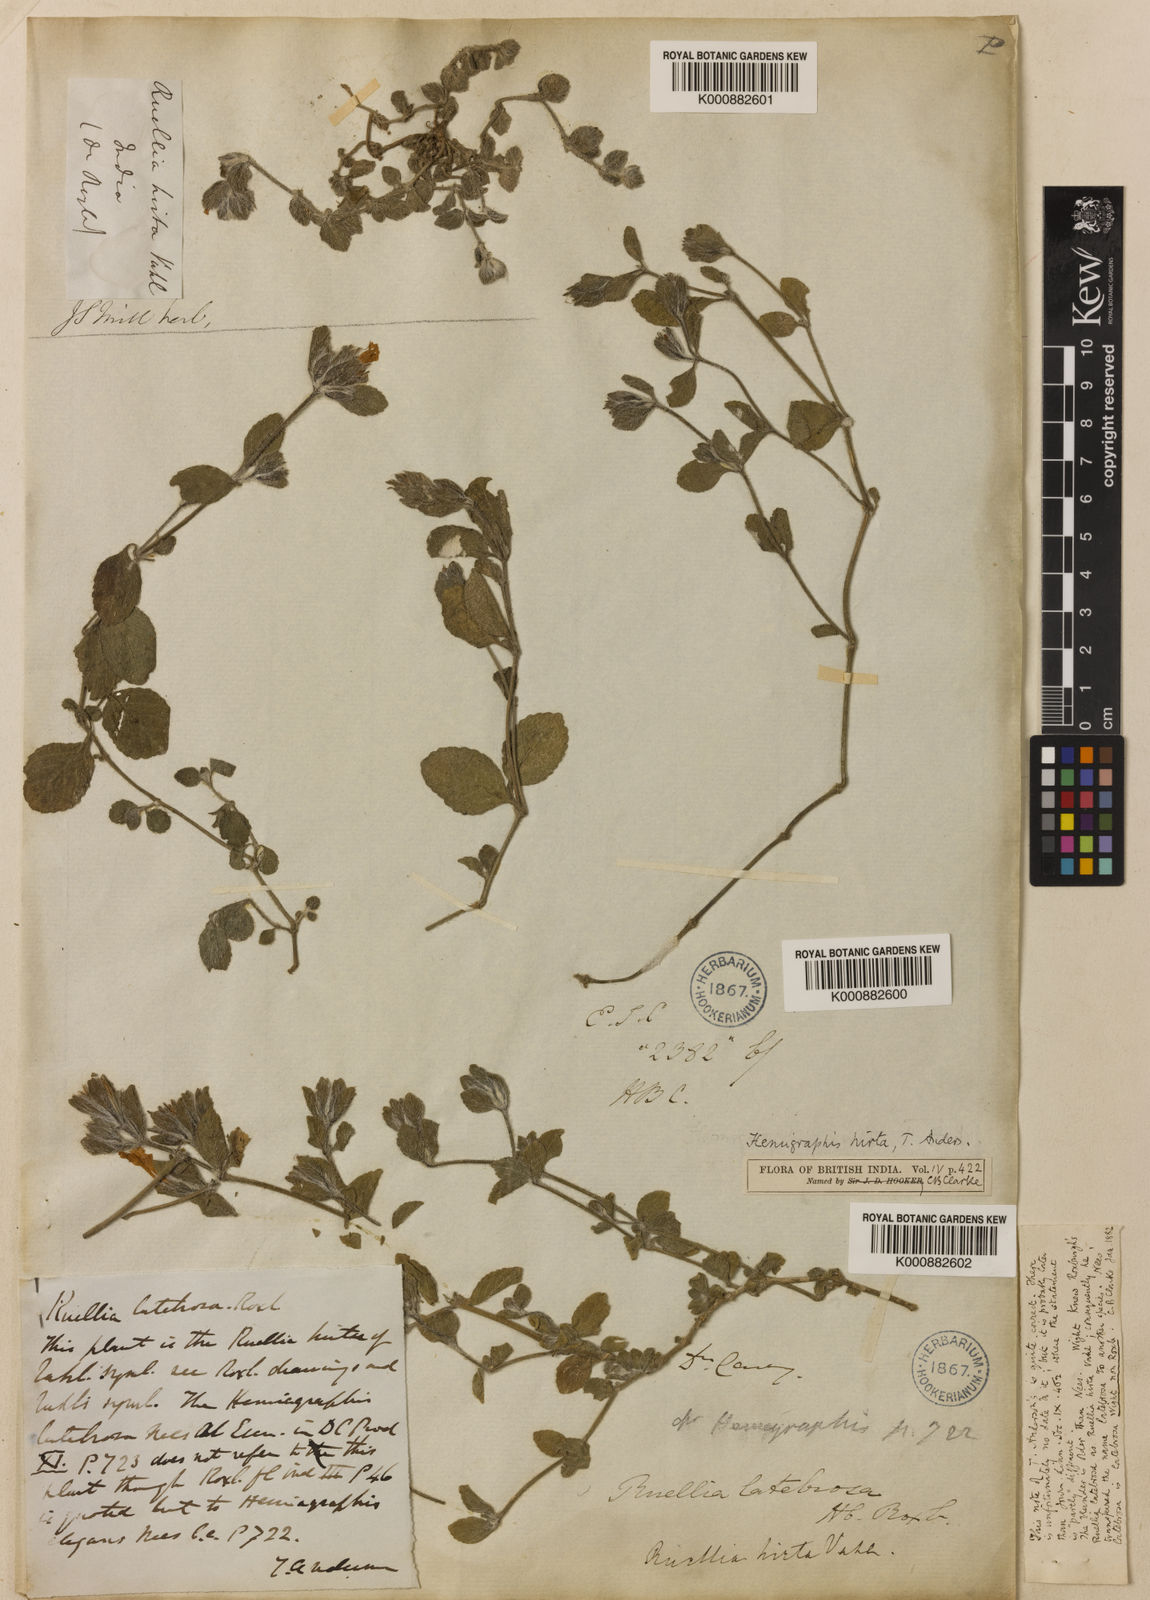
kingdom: Plantae
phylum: Tracheophyta
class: Magnoliopsida
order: Lamiales
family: Acanthaceae
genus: Strobilanthes
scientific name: Strobilanthes hirta
